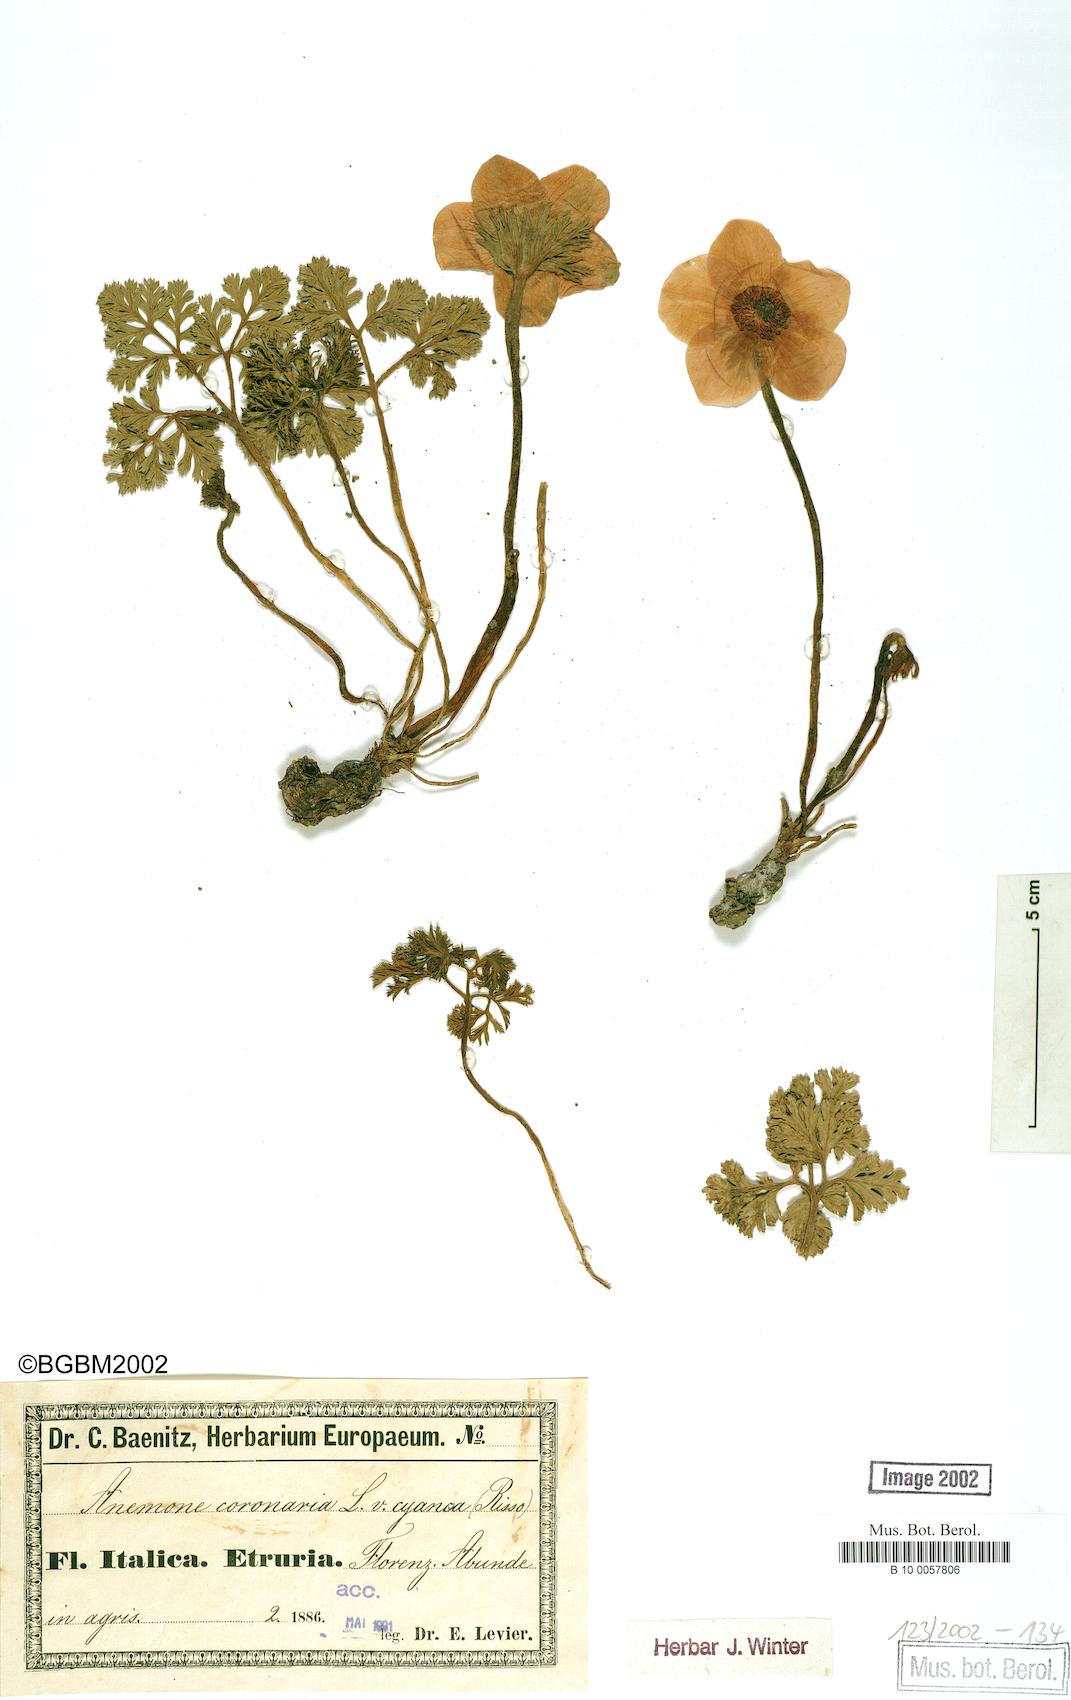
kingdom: Plantae
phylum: Tracheophyta
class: Magnoliopsida
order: Ranunculales
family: Ranunculaceae
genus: Anemone
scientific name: Anemone coronaria
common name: Poppy anemone
